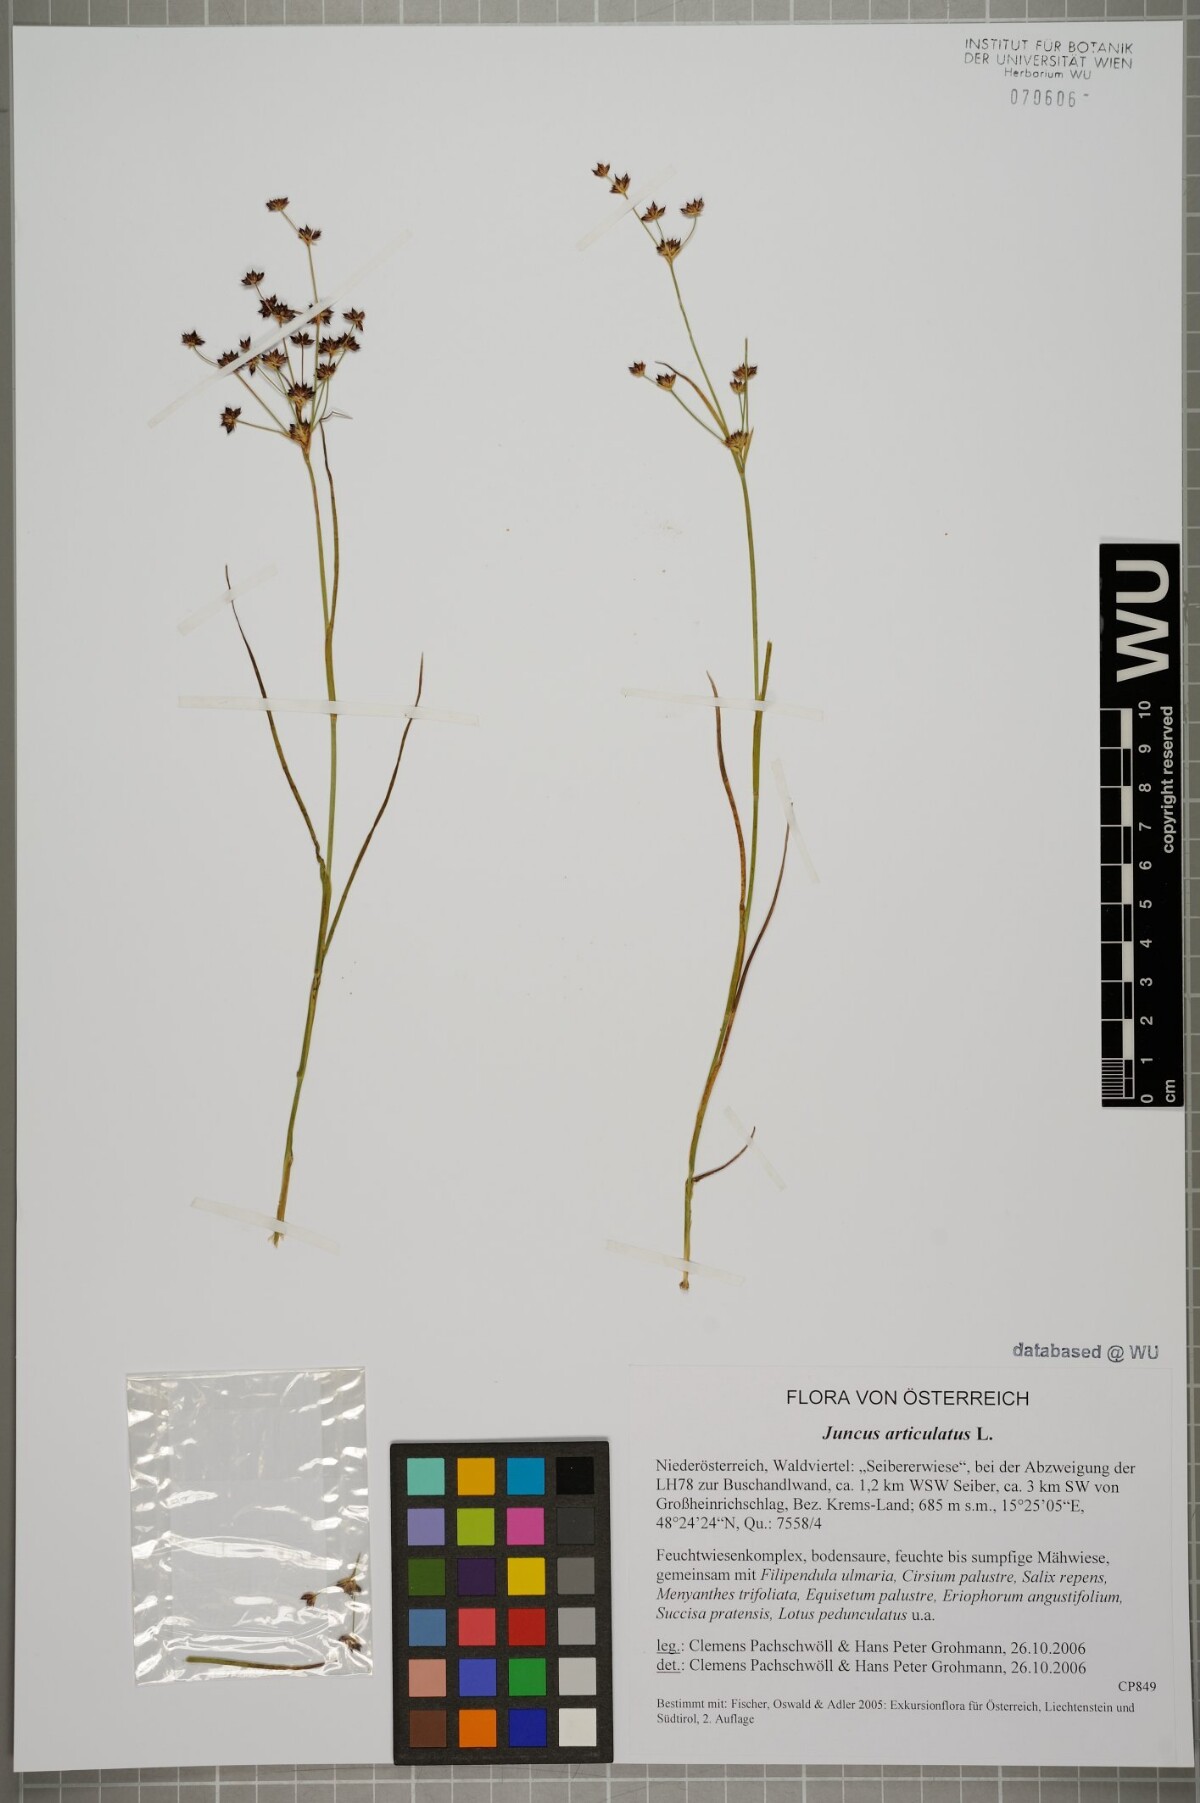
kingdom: Plantae
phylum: Tracheophyta
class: Liliopsida
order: Poales
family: Juncaceae
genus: Juncus
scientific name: Juncus articulatus
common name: Jointed rush
